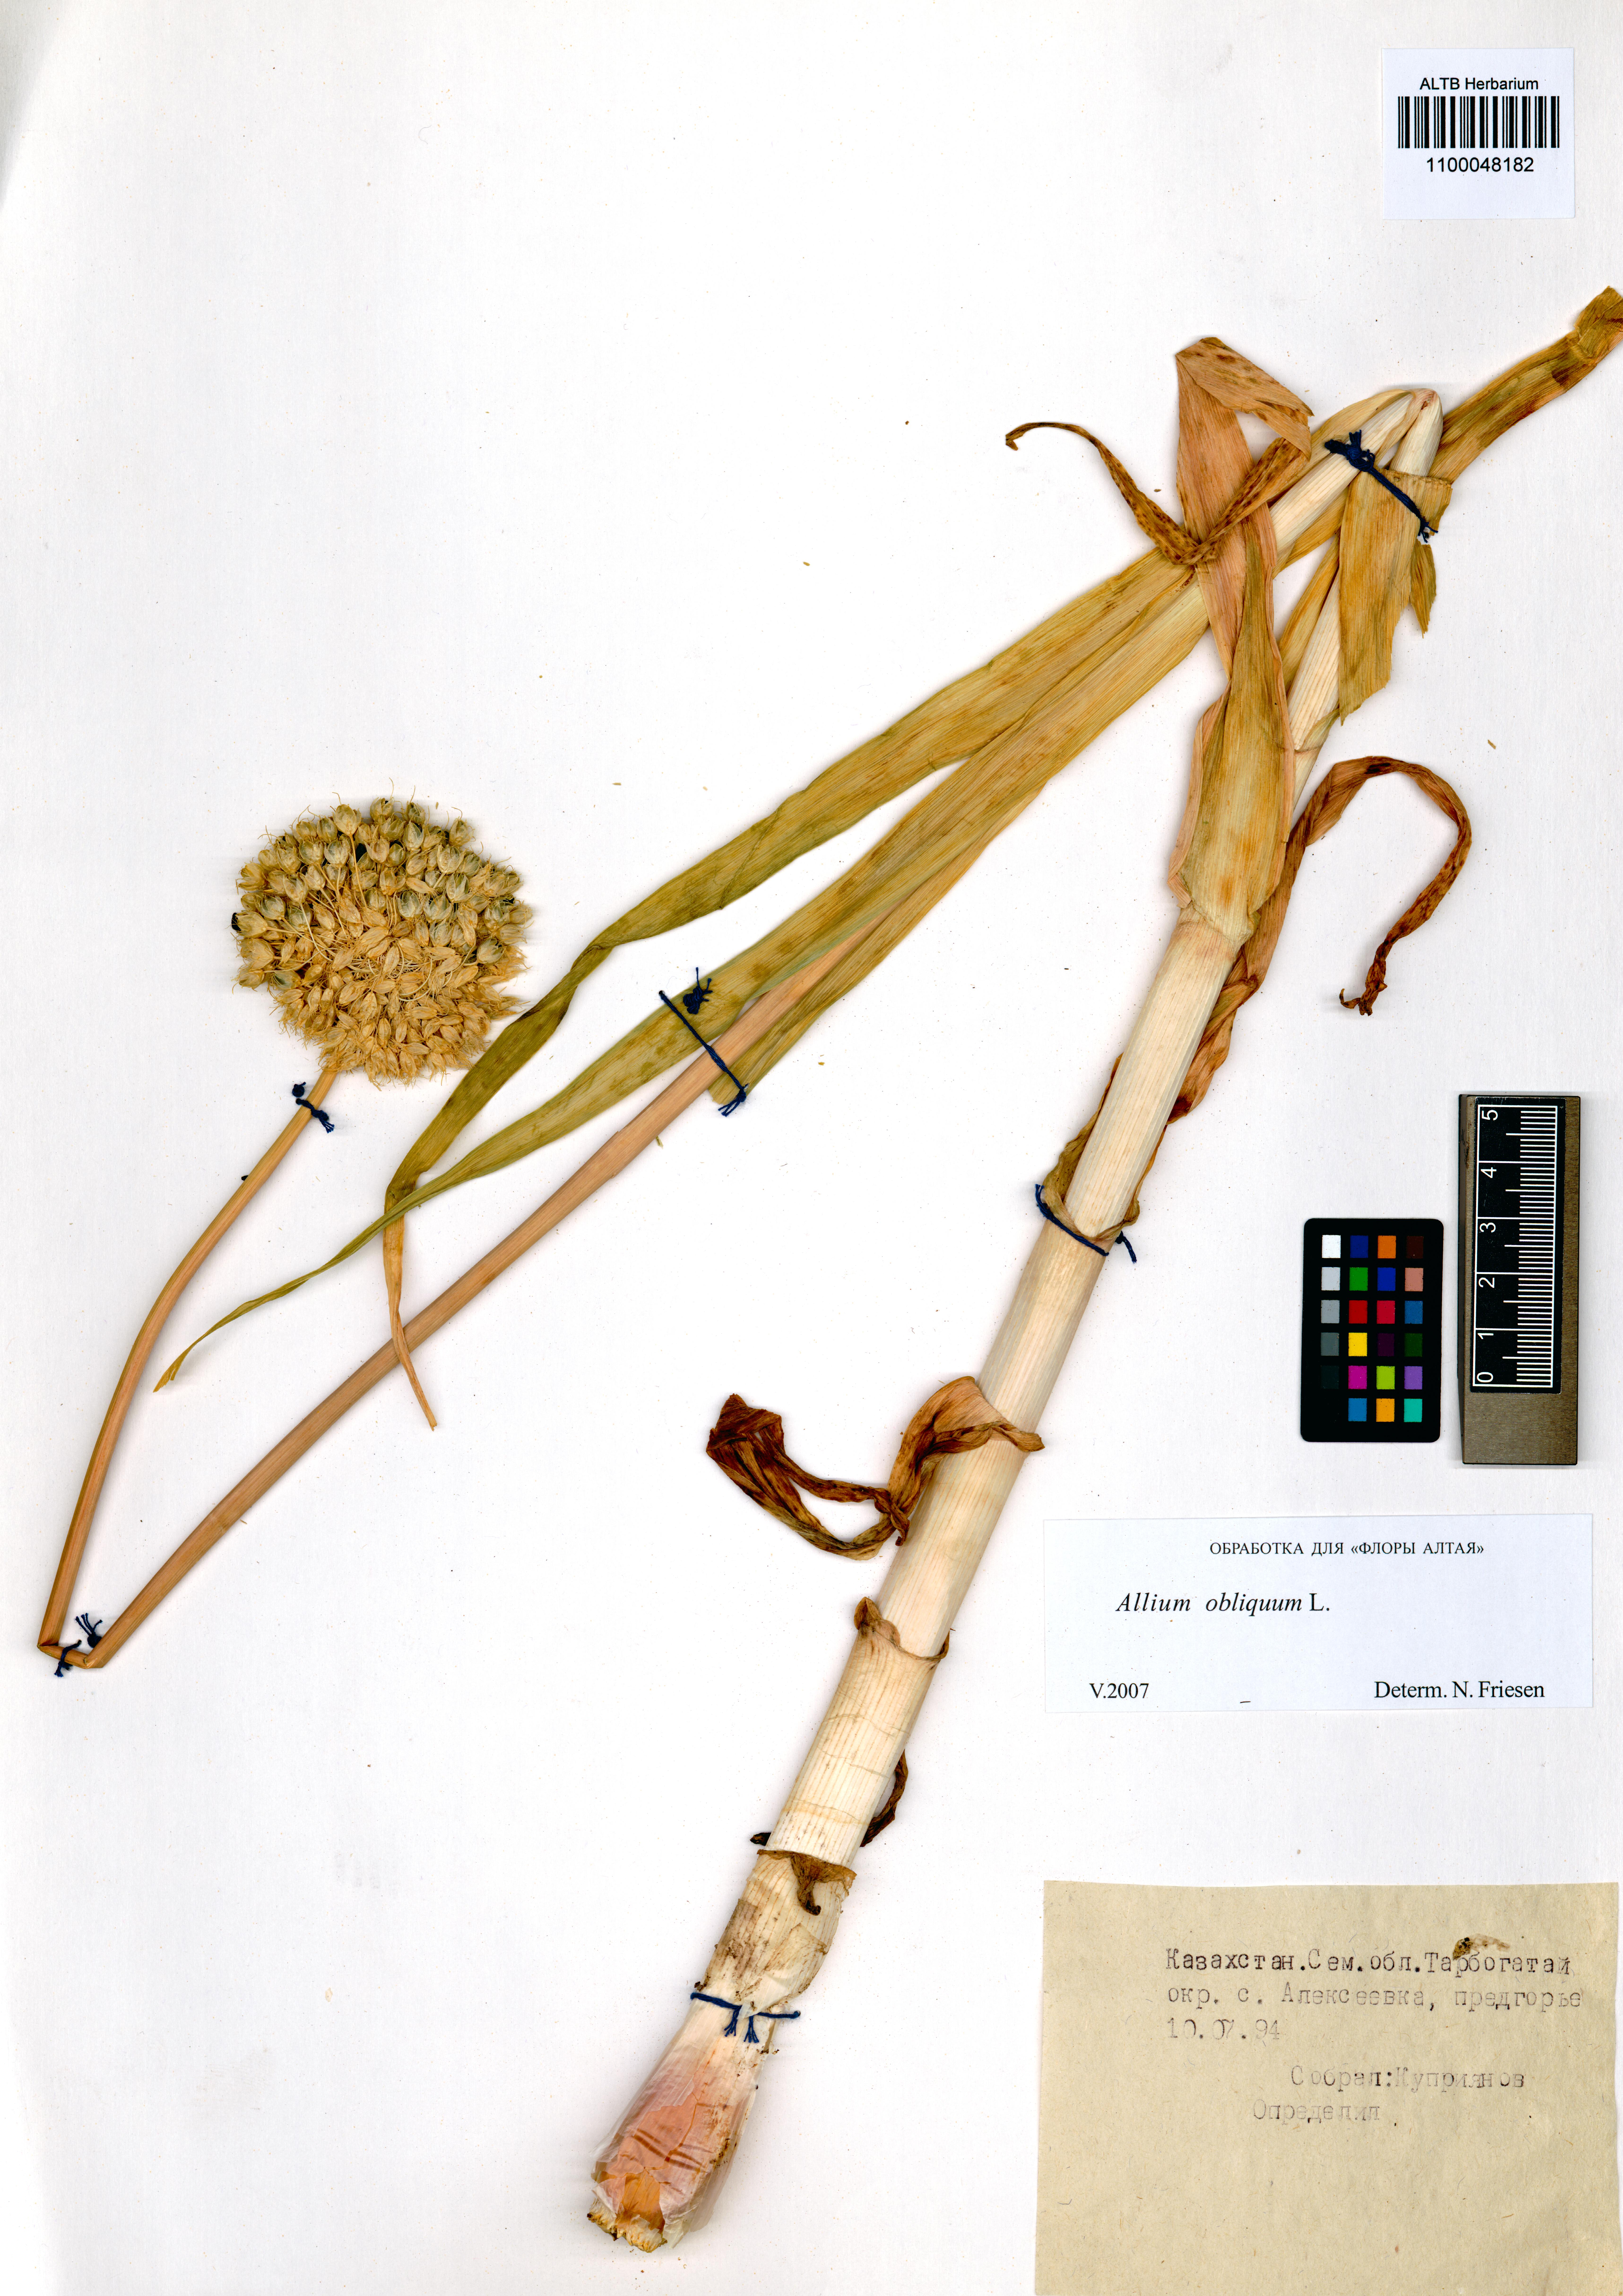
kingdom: Plantae
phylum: Tracheophyta
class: Liliopsida
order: Asparagales
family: Amaryllidaceae
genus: Allium
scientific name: Allium obliquum
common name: Oblique onion
